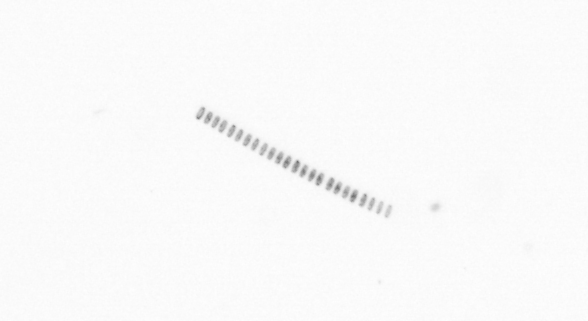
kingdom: Chromista
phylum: Ochrophyta
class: Bacillariophyceae
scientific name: Bacillariophyceae
